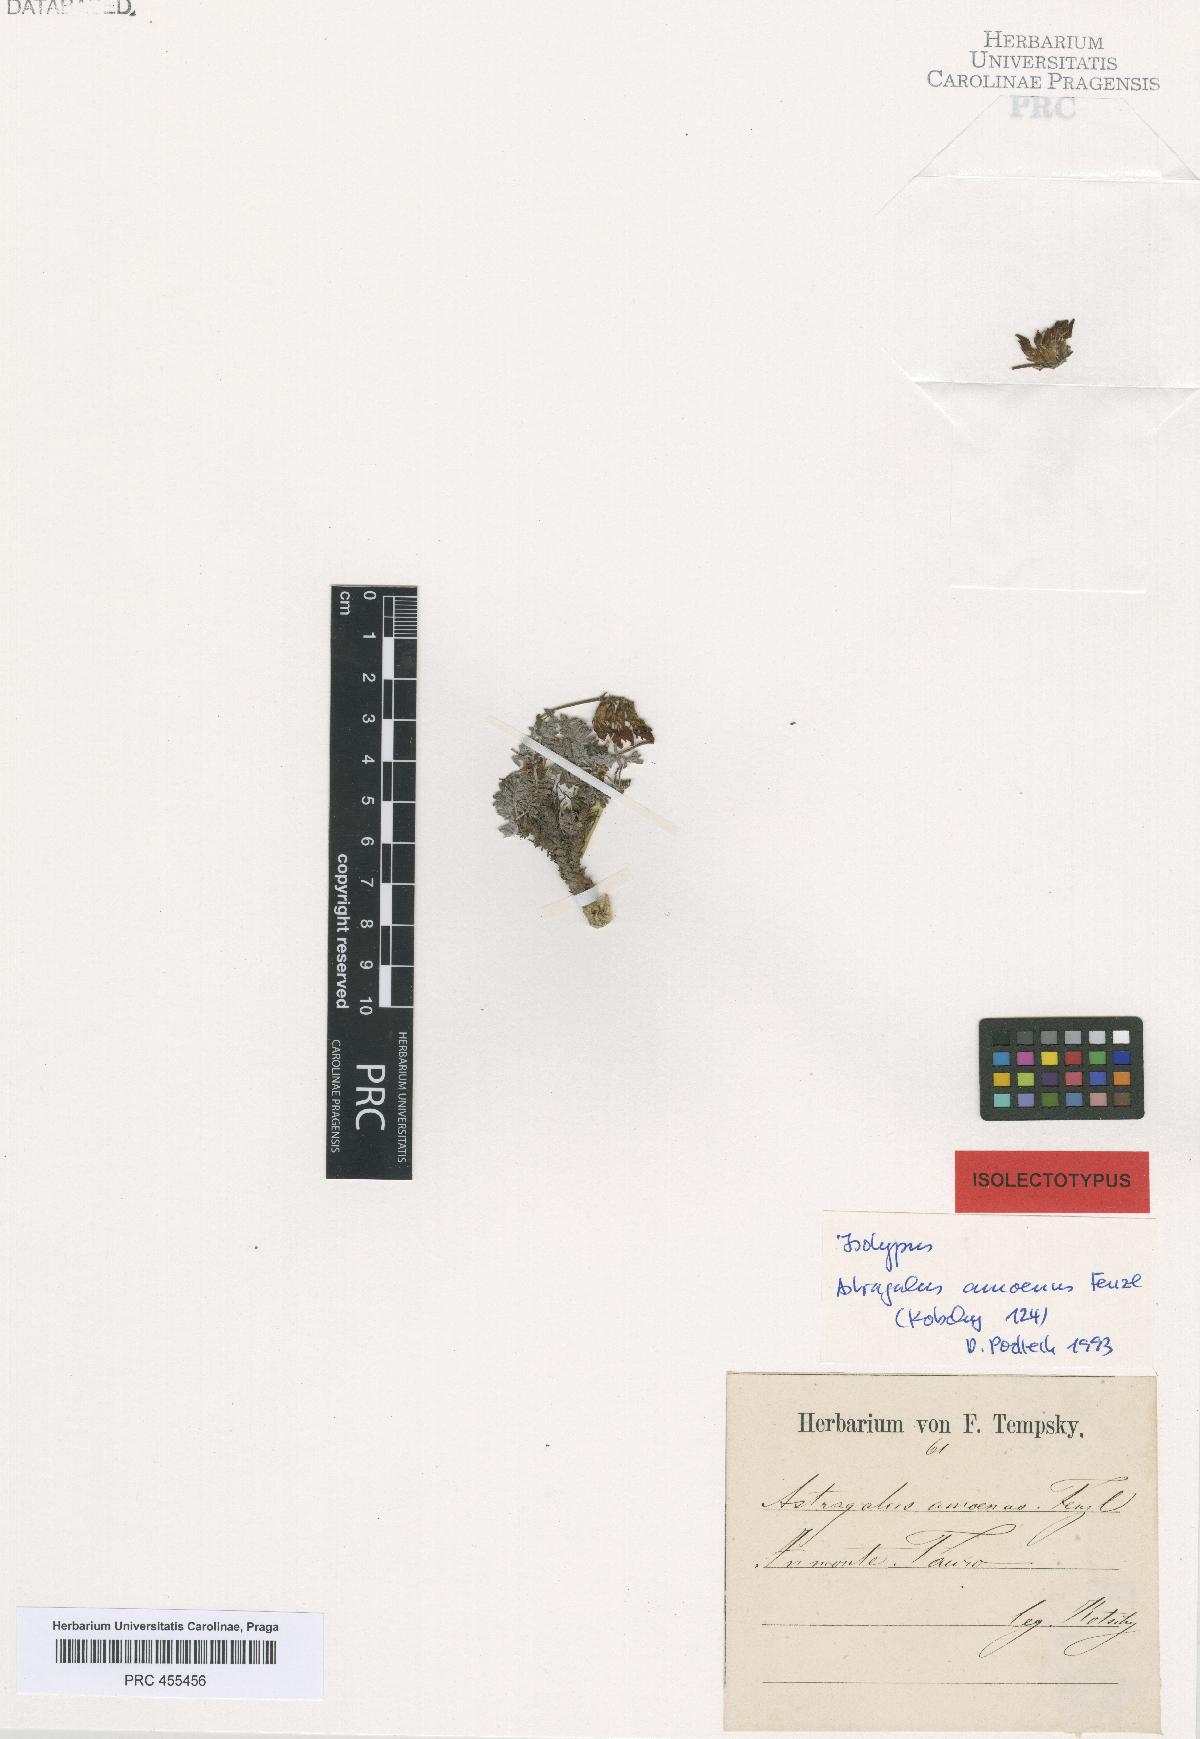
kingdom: Plantae
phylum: Tracheophyta
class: Magnoliopsida
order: Fabales
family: Fabaceae
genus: Astragalus
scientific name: Astragalus amoenus
